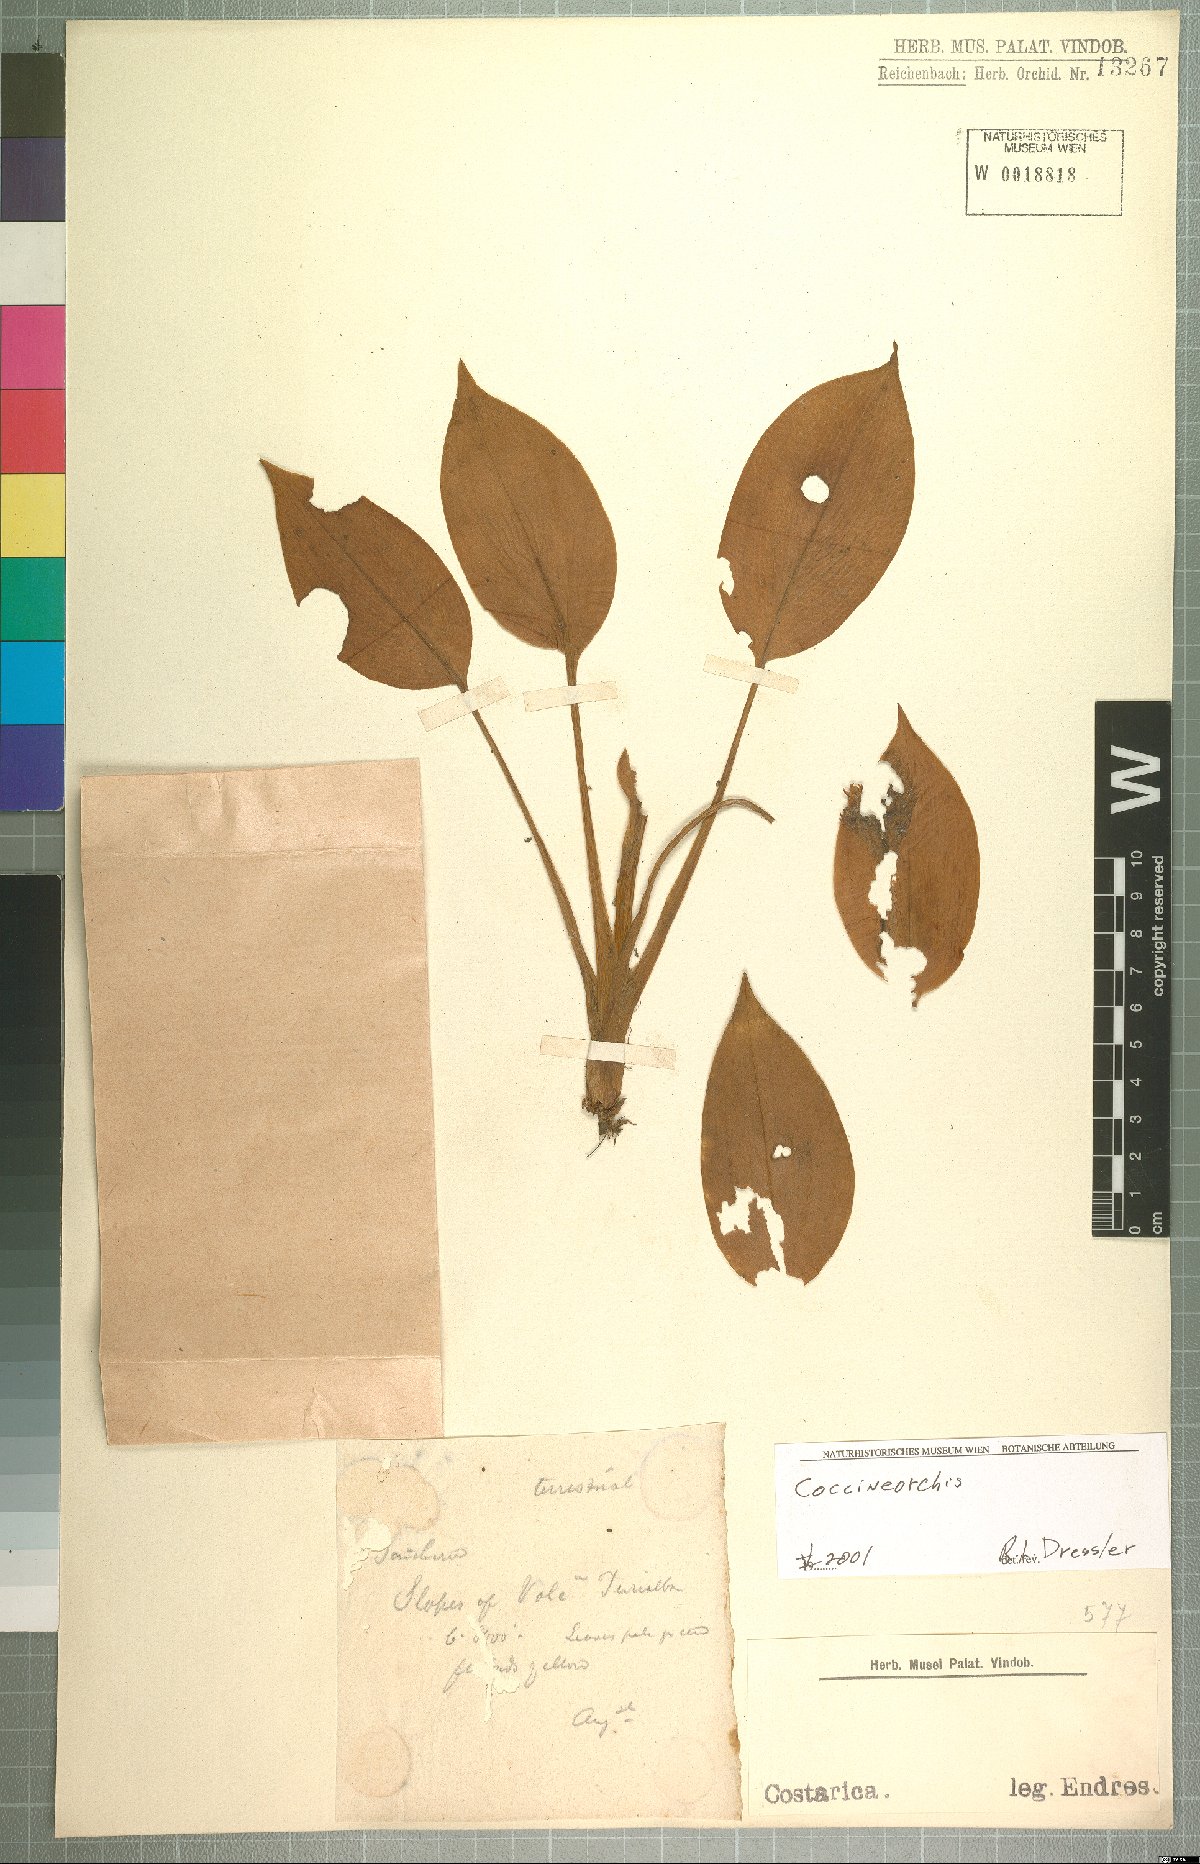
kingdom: Plantae
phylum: Tracheophyta
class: Liliopsida
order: Asparagales
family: Orchidaceae
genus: Coccineorchis
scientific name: Coccineorchis
